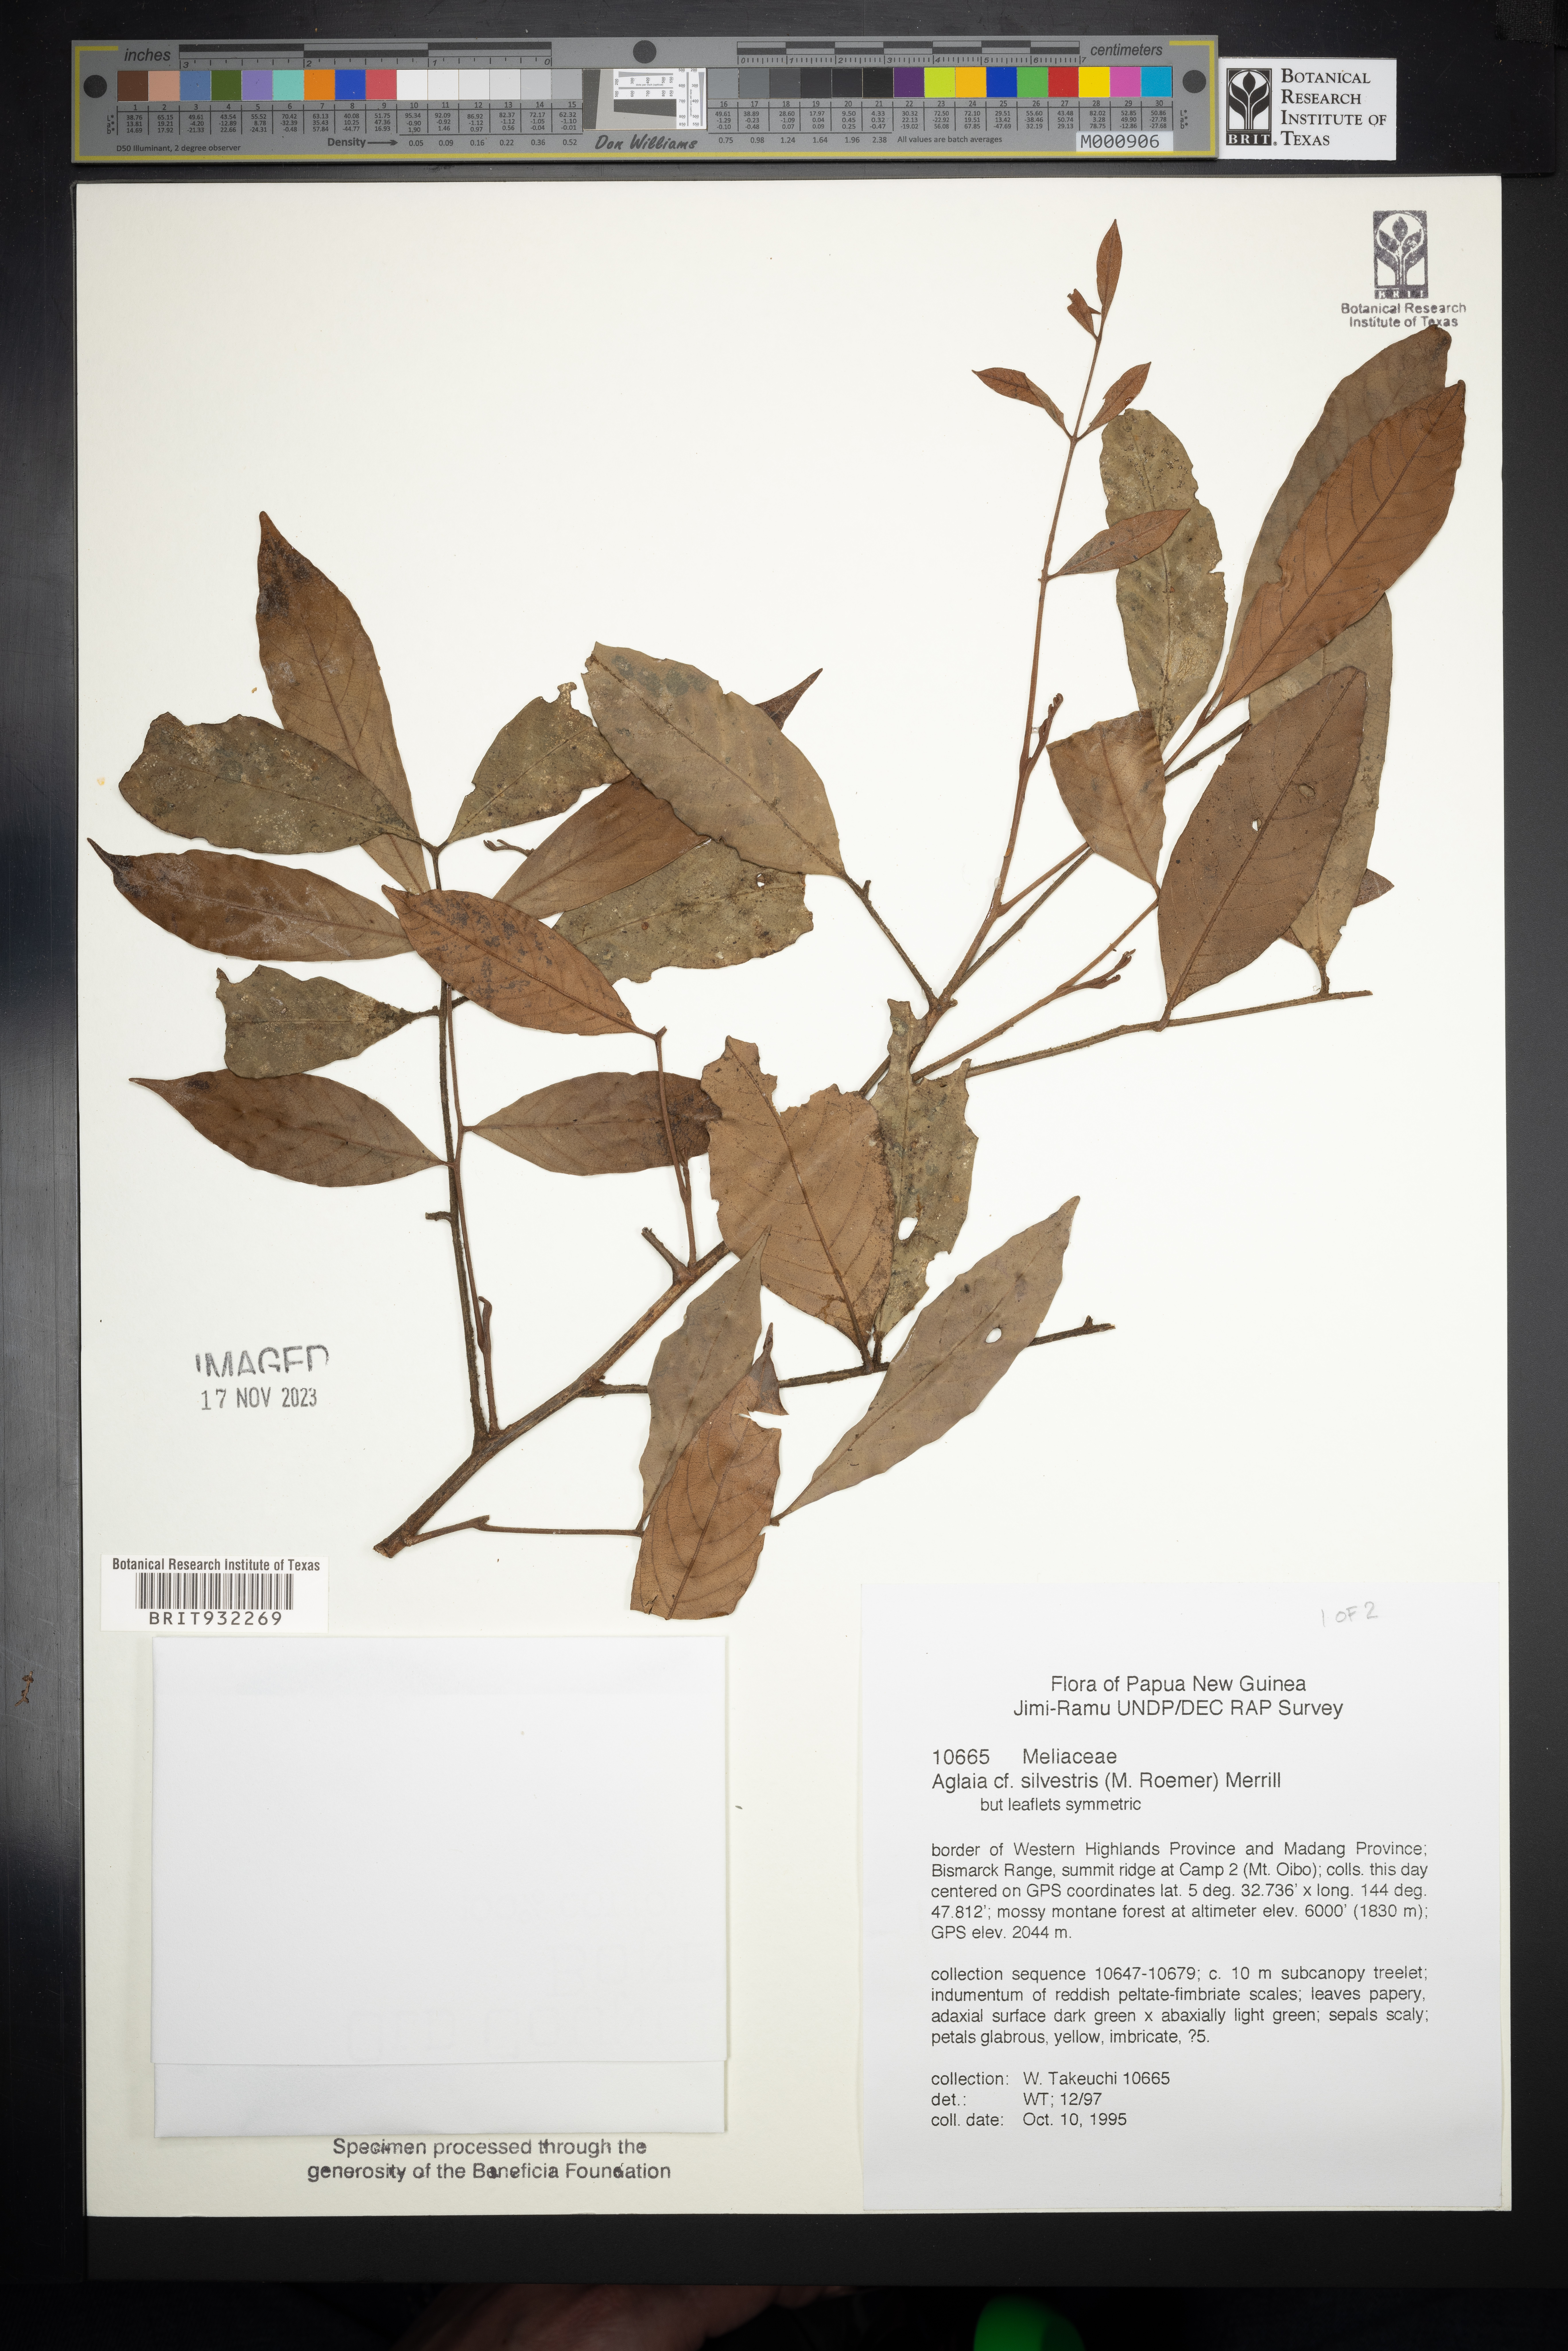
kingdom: Plantae
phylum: Tracheophyta
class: Magnoliopsida
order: Sapindales
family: Meliaceae
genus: Aglaia
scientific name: Aglaia
